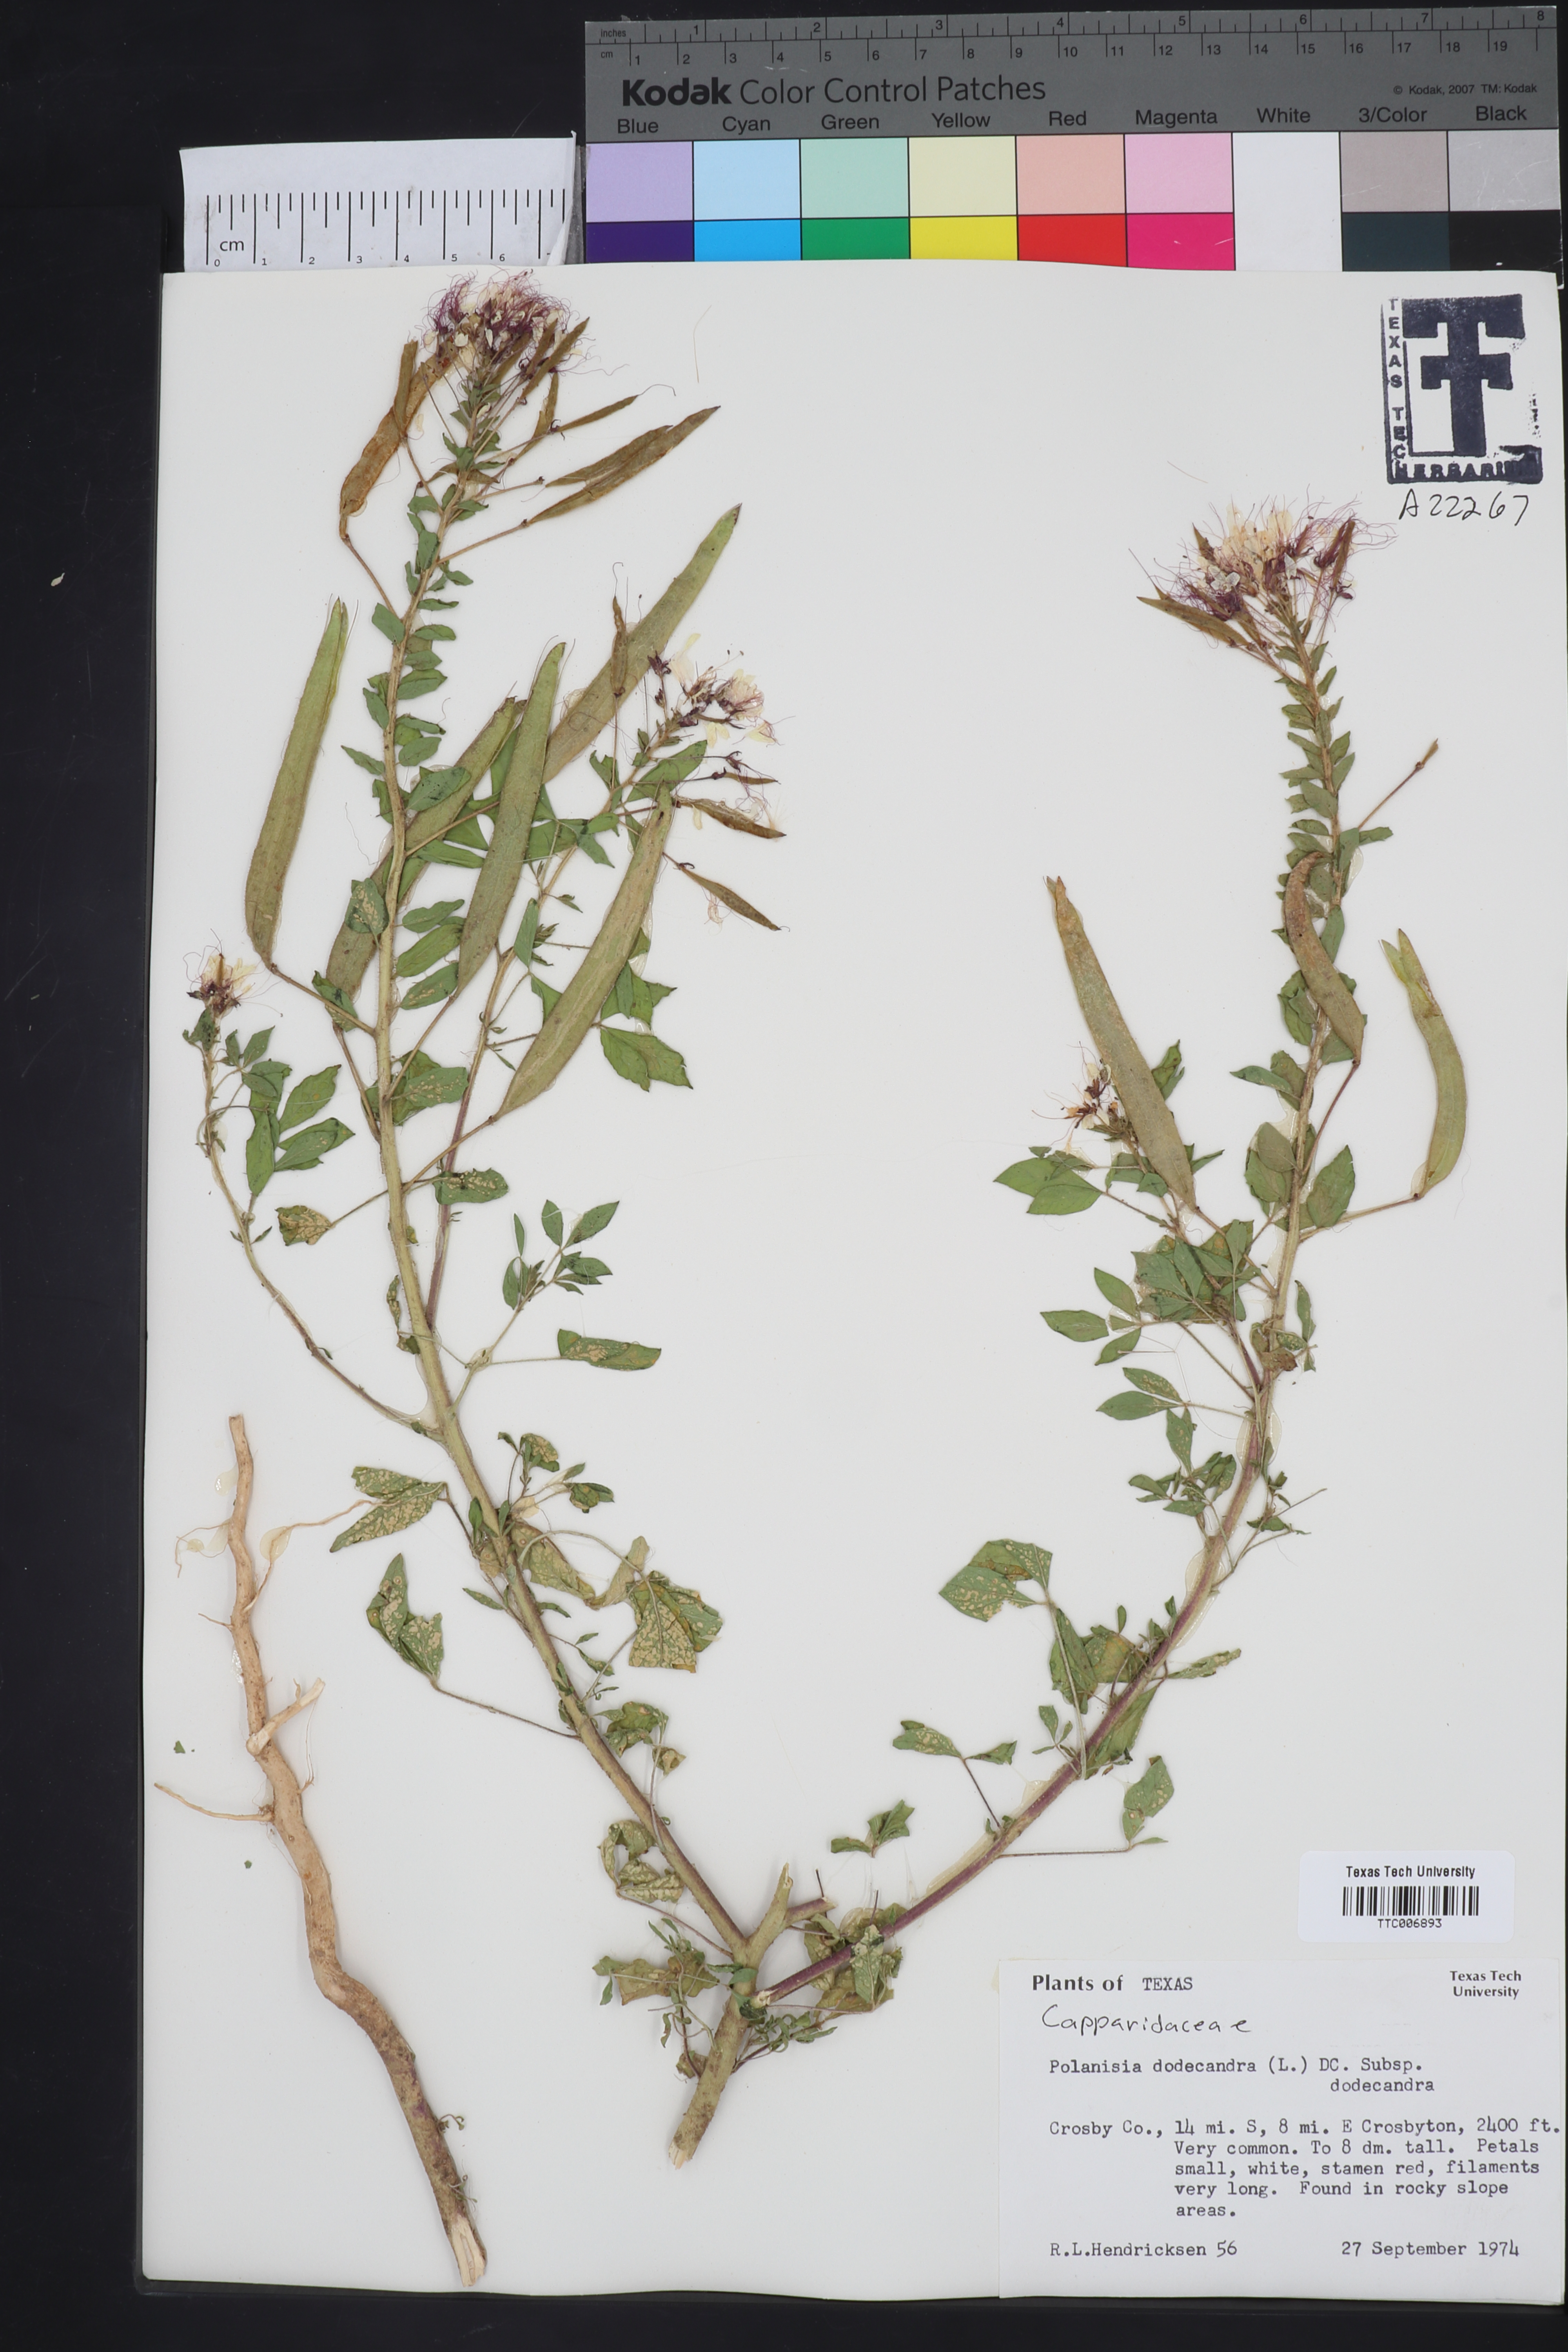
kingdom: Plantae
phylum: Tracheophyta
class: Magnoliopsida
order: Brassicales
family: Cleomaceae
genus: Polanisia
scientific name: Polanisia dodecandra
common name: Clammyweed
